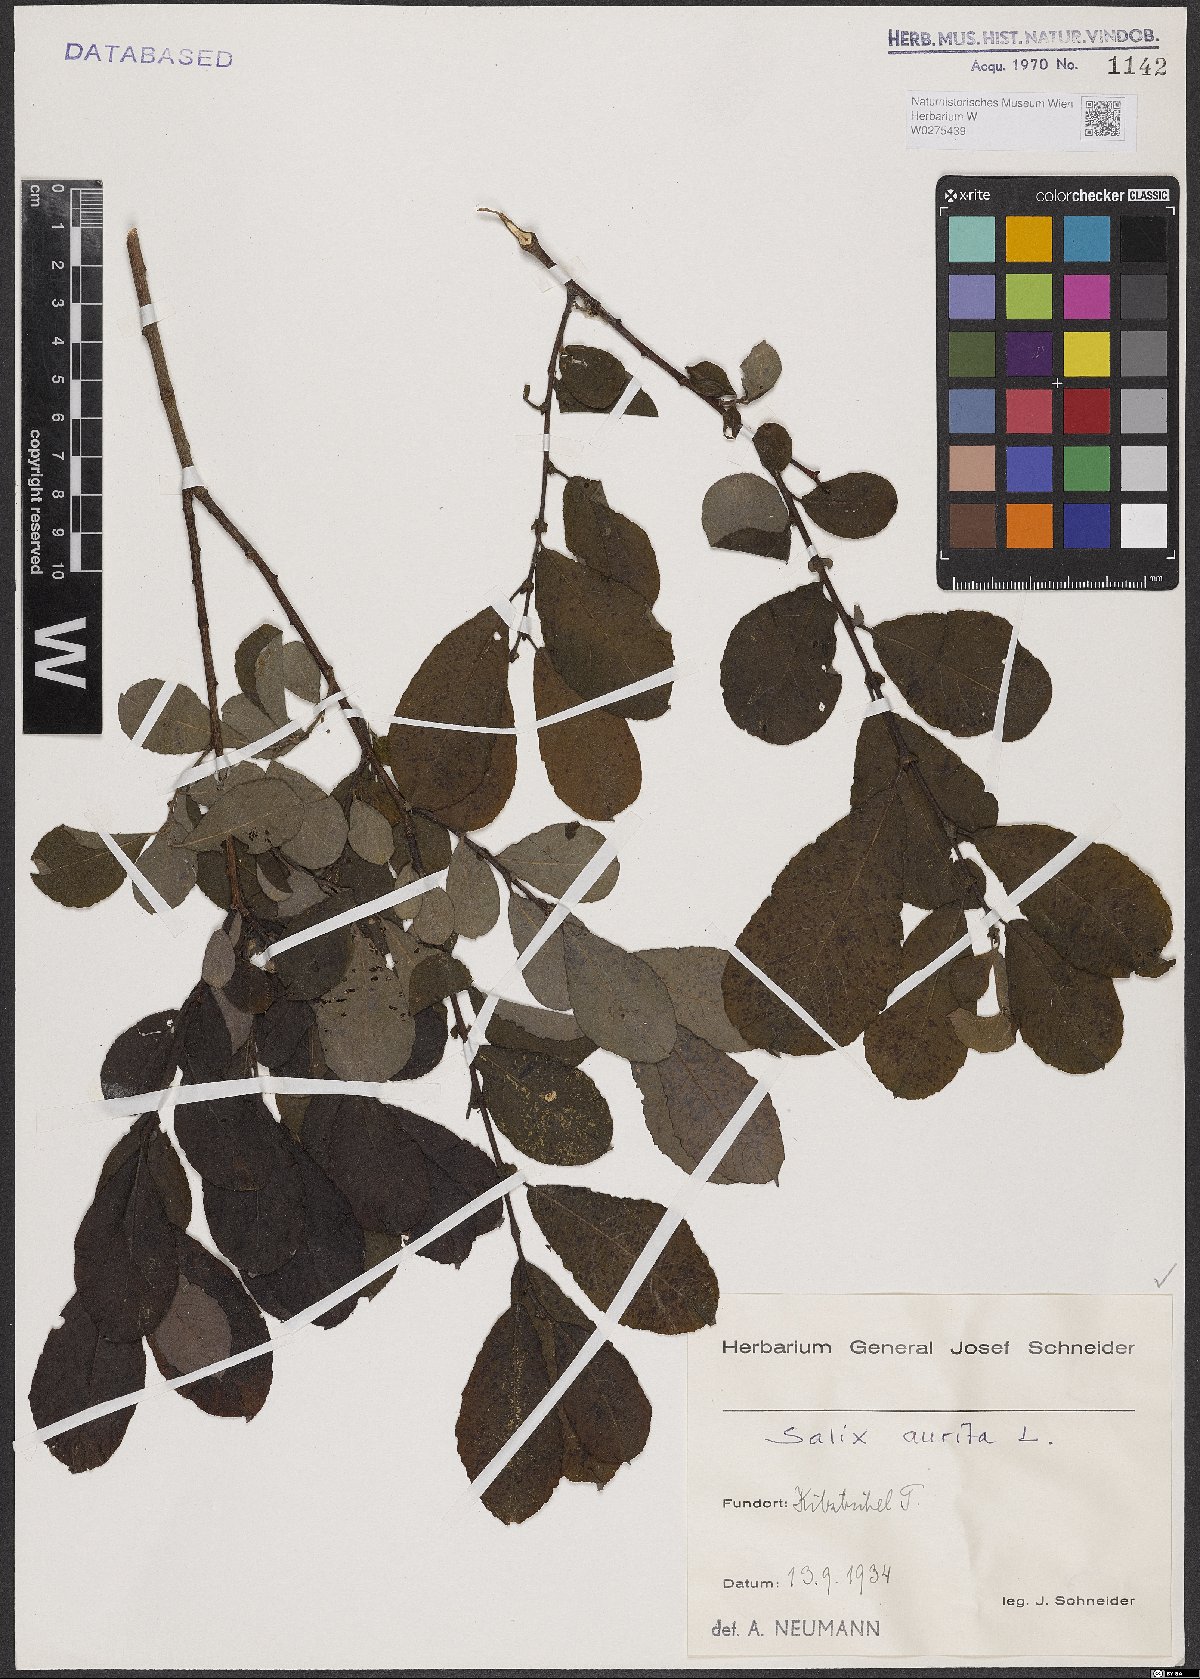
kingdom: Plantae
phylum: Tracheophyta
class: Magnoliopsida
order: Malpighiales
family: Salicaceae
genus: Salix
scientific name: Salix aurita
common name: Eared willow
